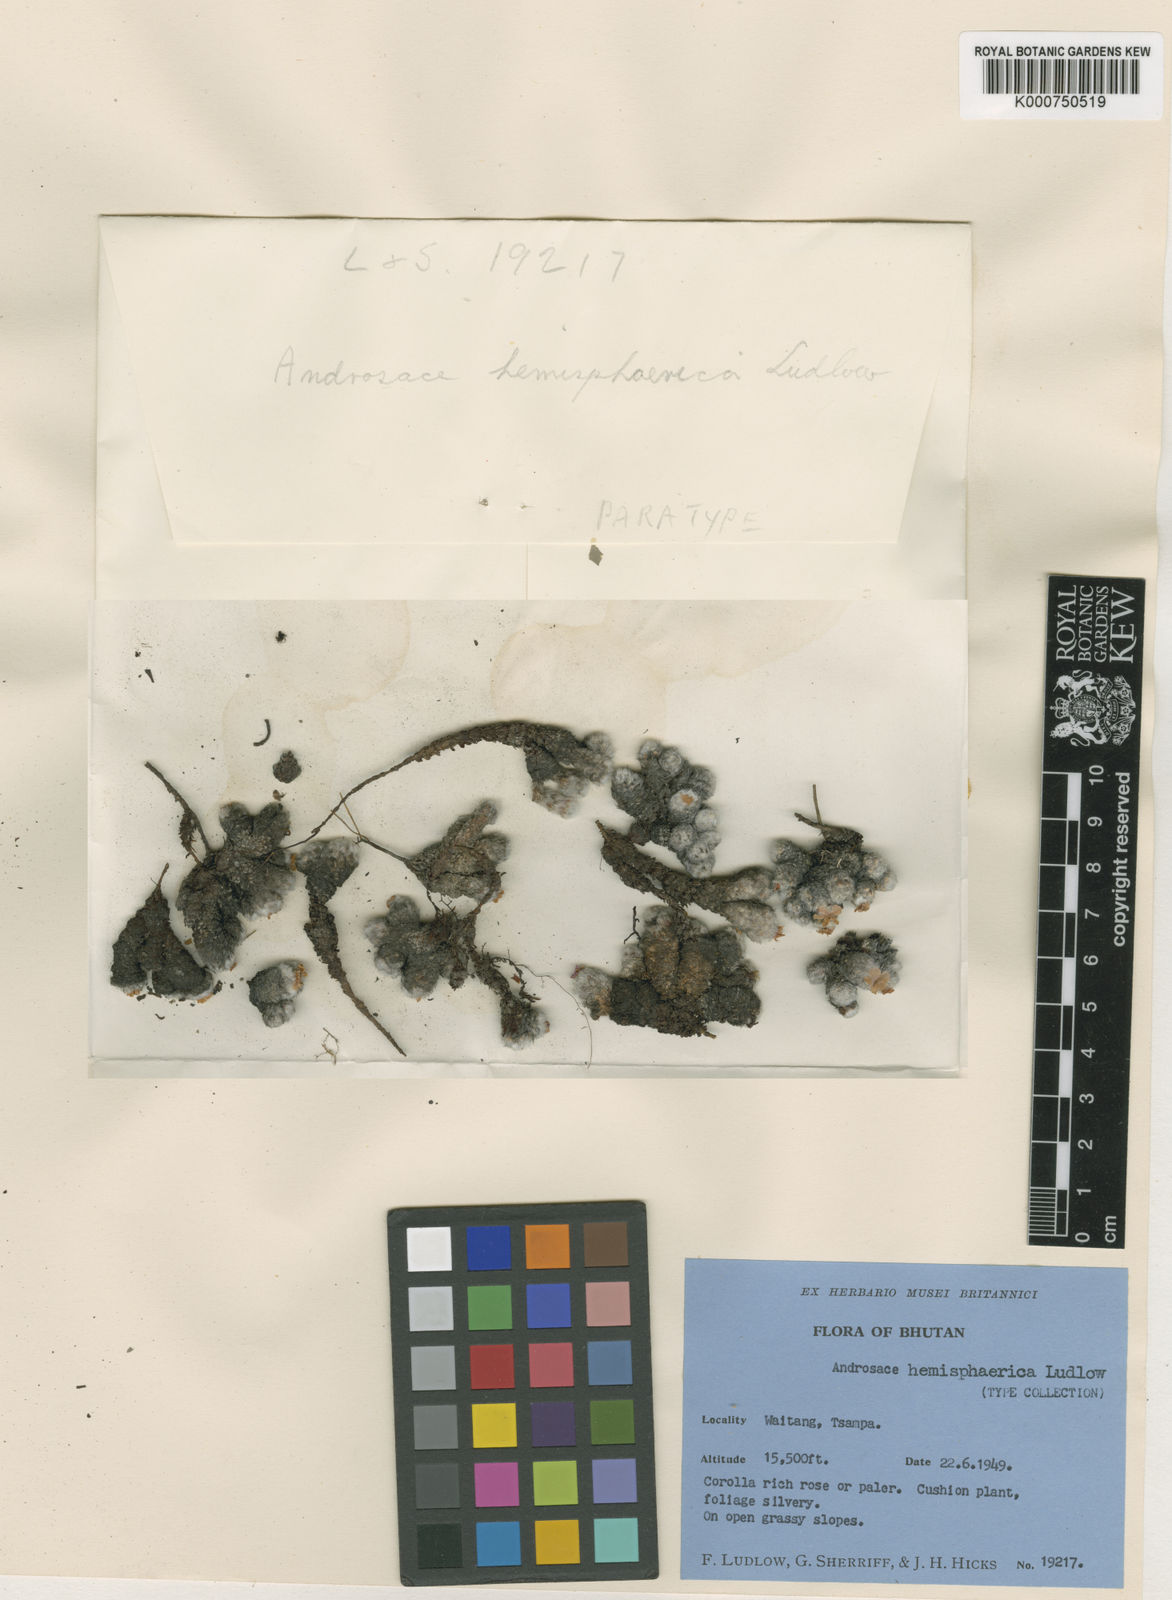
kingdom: Plantae
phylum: Tracheophyta
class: Magnoliopsida
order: Ericales
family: Primulaceae
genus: Androsace
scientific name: Androsace hemisphaerica
